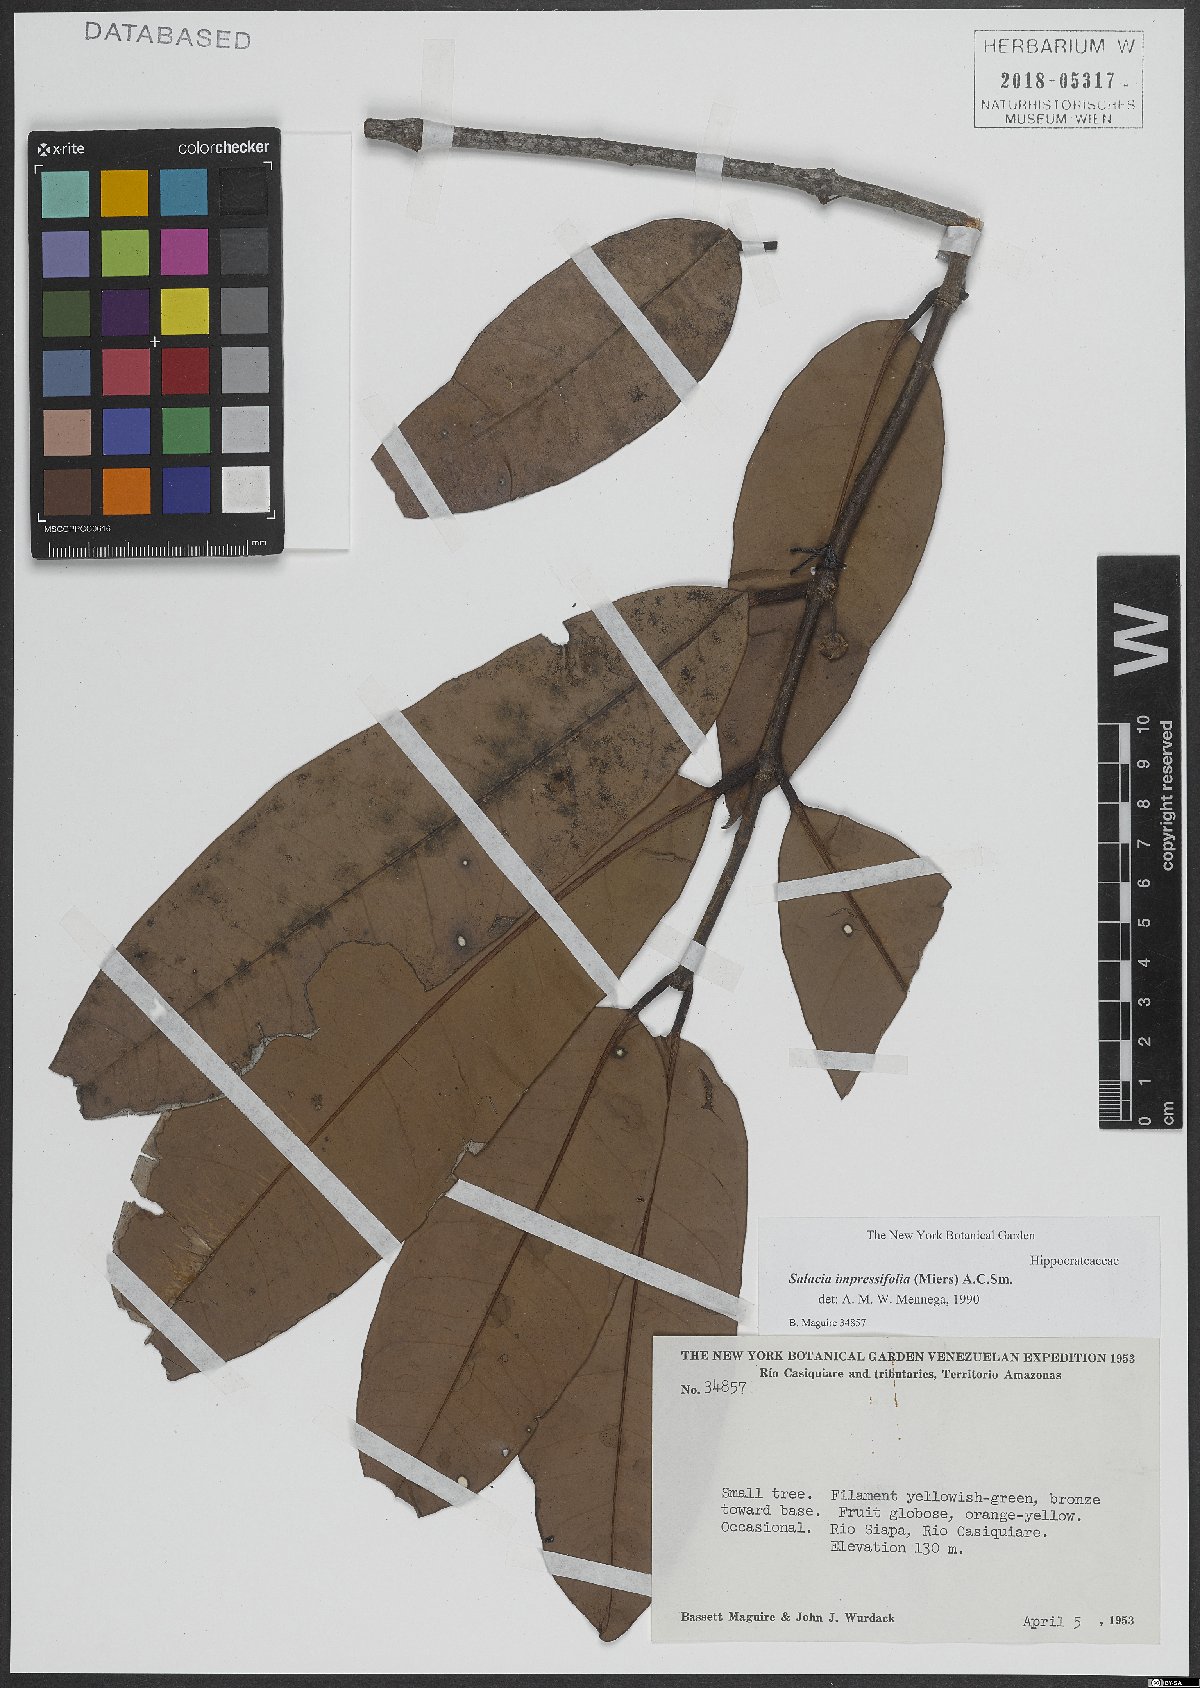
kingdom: Plantae
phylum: Tracheophyta
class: Magnoliopsida
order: Celastrales
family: Celastraceae
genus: Salacia
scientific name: Salacia impressifolia
